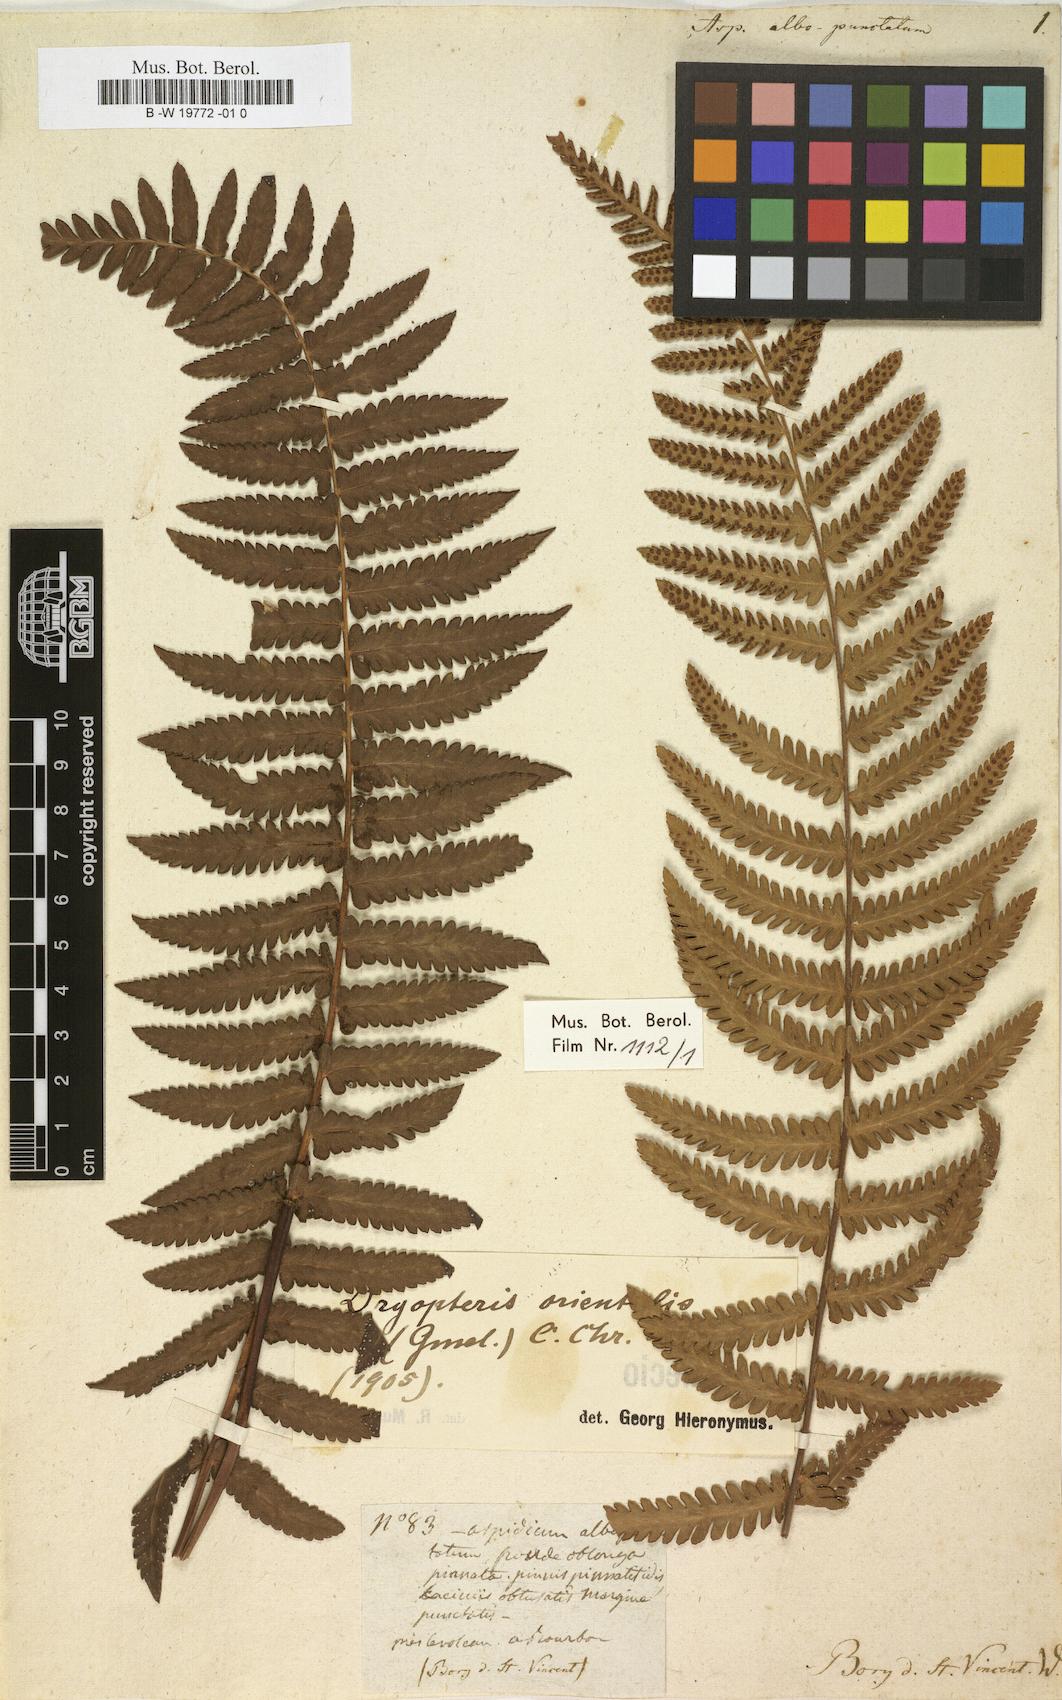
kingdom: Plantae
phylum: Tracheophyta
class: Polypodiopsida
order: Polypodiales
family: Tectariaceae
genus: Arthropteris
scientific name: Arthropteris orientalis
